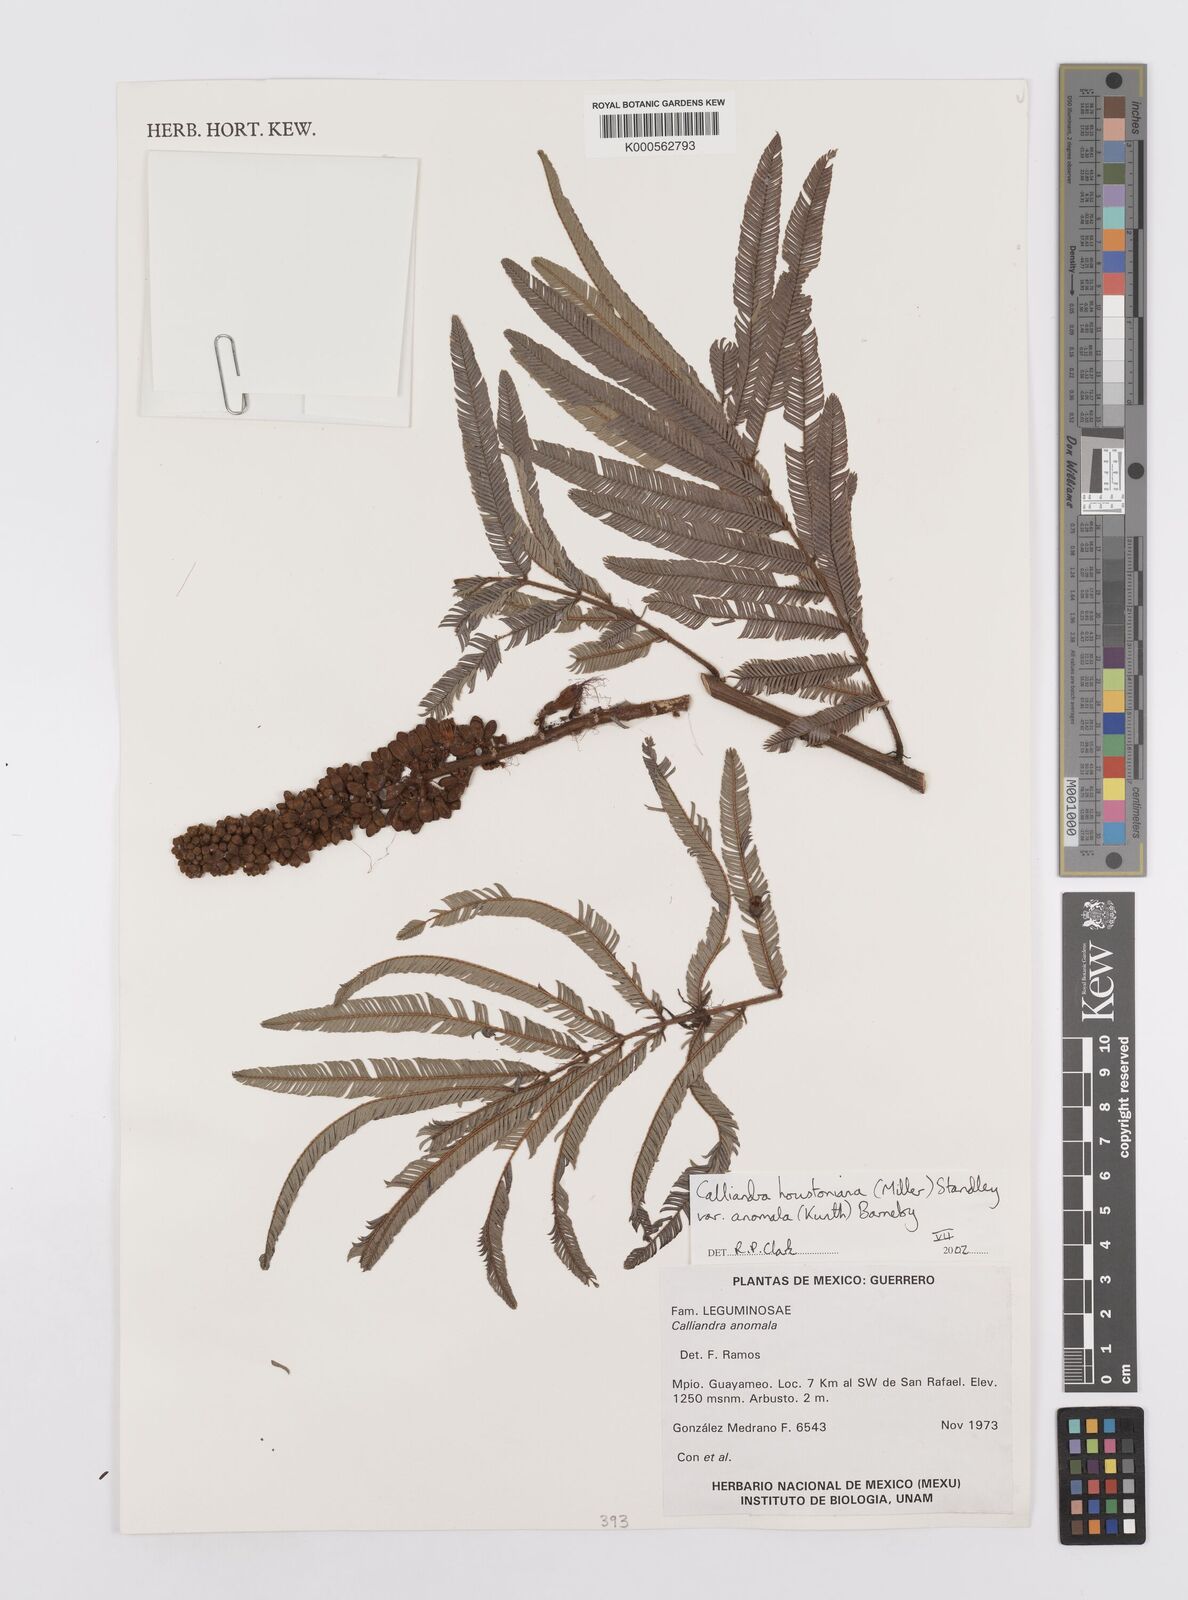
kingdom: Plantae
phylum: Tracheophyta
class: Magnoliopsida
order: Fabales
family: Fabaceae
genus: Calliandra
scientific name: Calliandra houstoniana
